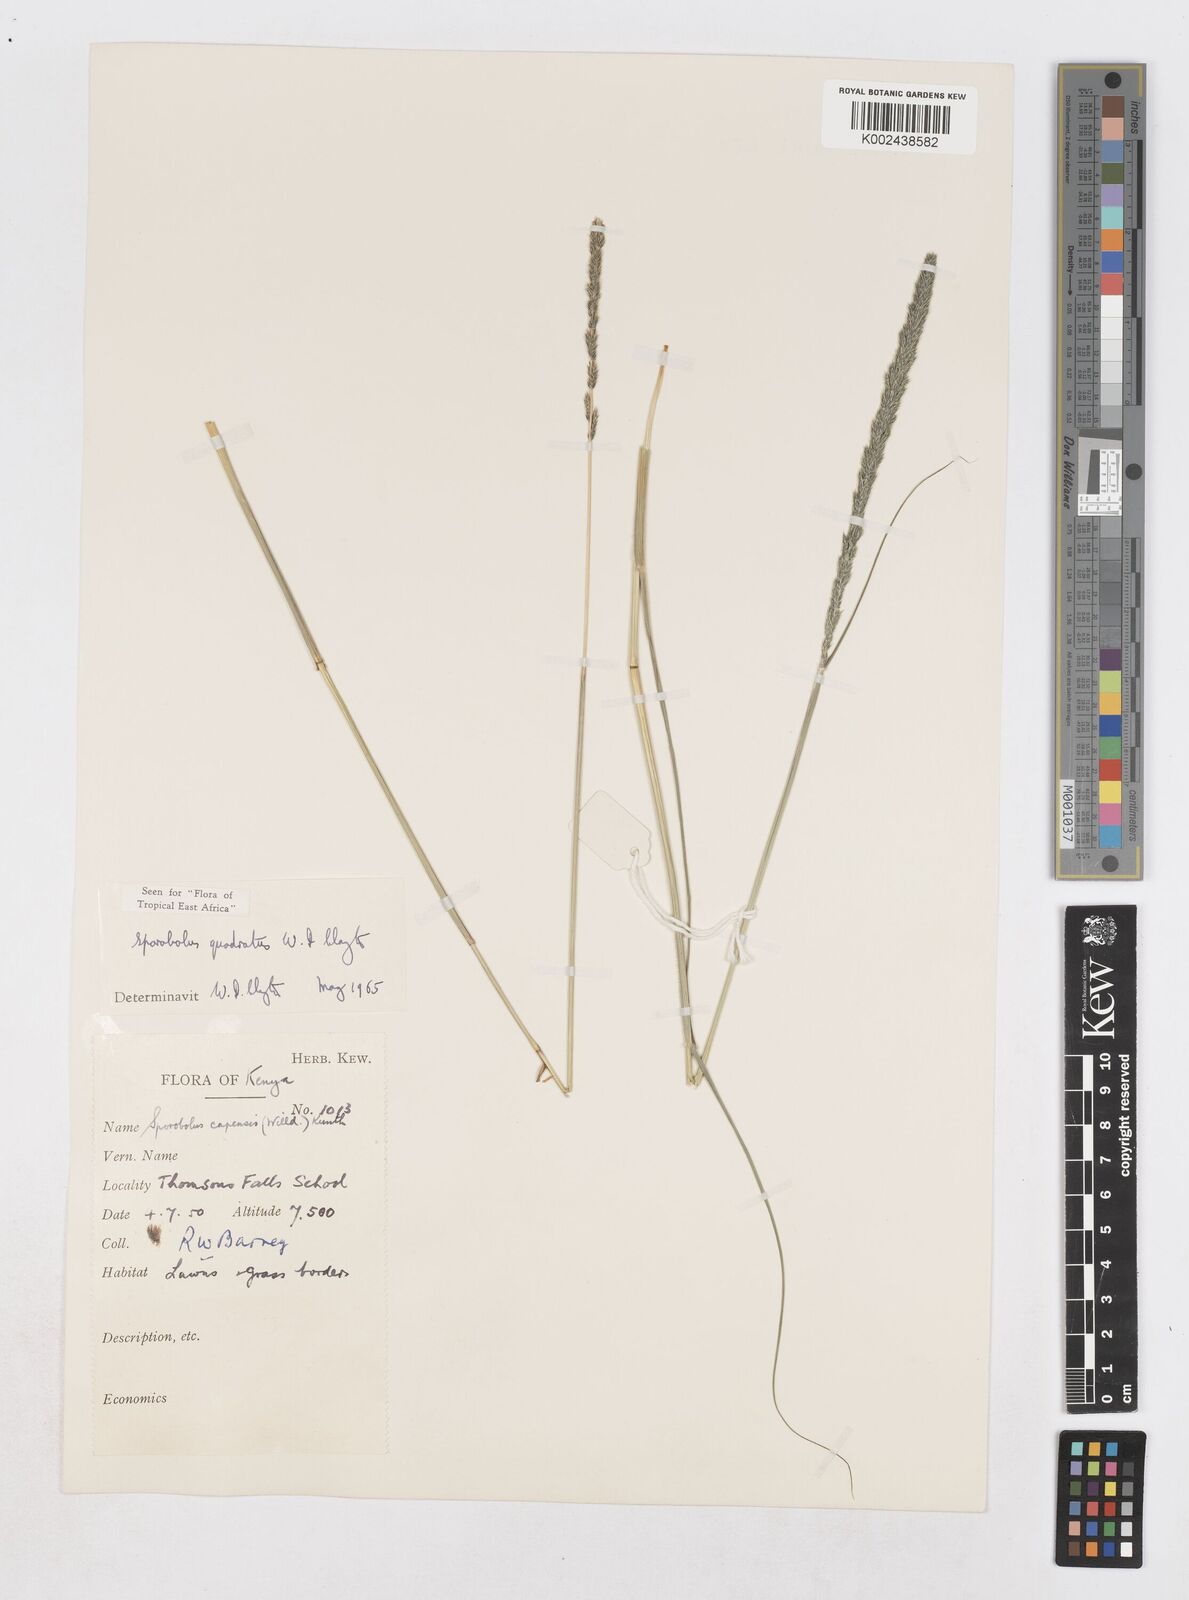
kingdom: Plantae
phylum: Tracheophyta
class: Liliopsida
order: Poales
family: Poaceae
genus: Sporobolus
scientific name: Sporobolus quadratus
